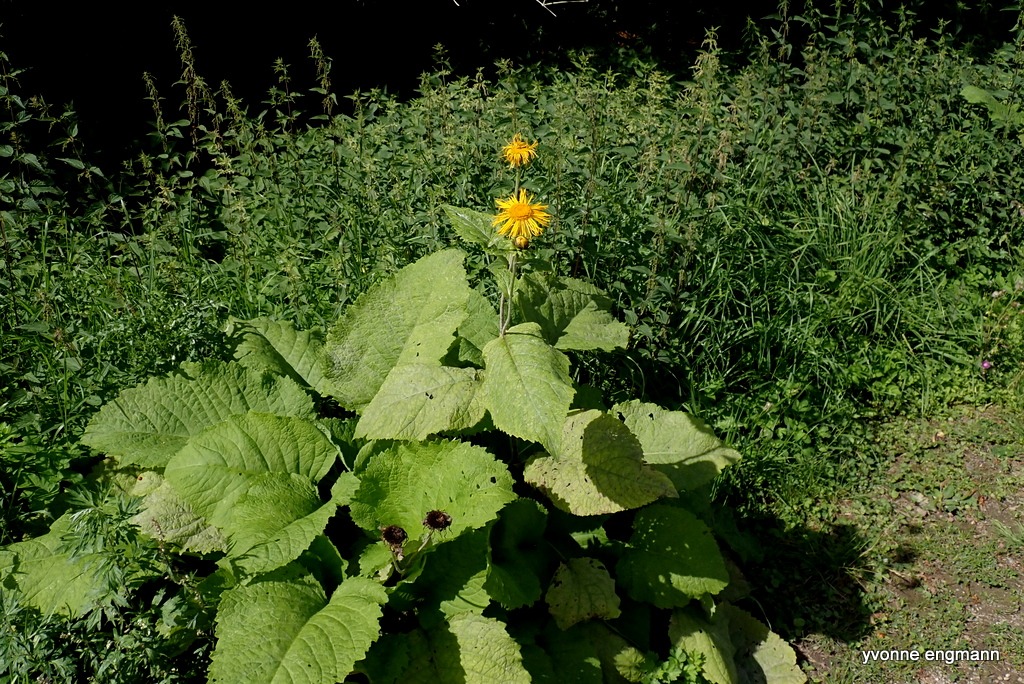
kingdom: Plantae
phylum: Tracheophyta
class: Magnoliopsida
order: Asterales
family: Asteraceae
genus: Telekia
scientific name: Telekia speciosa
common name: Tusindstråle
